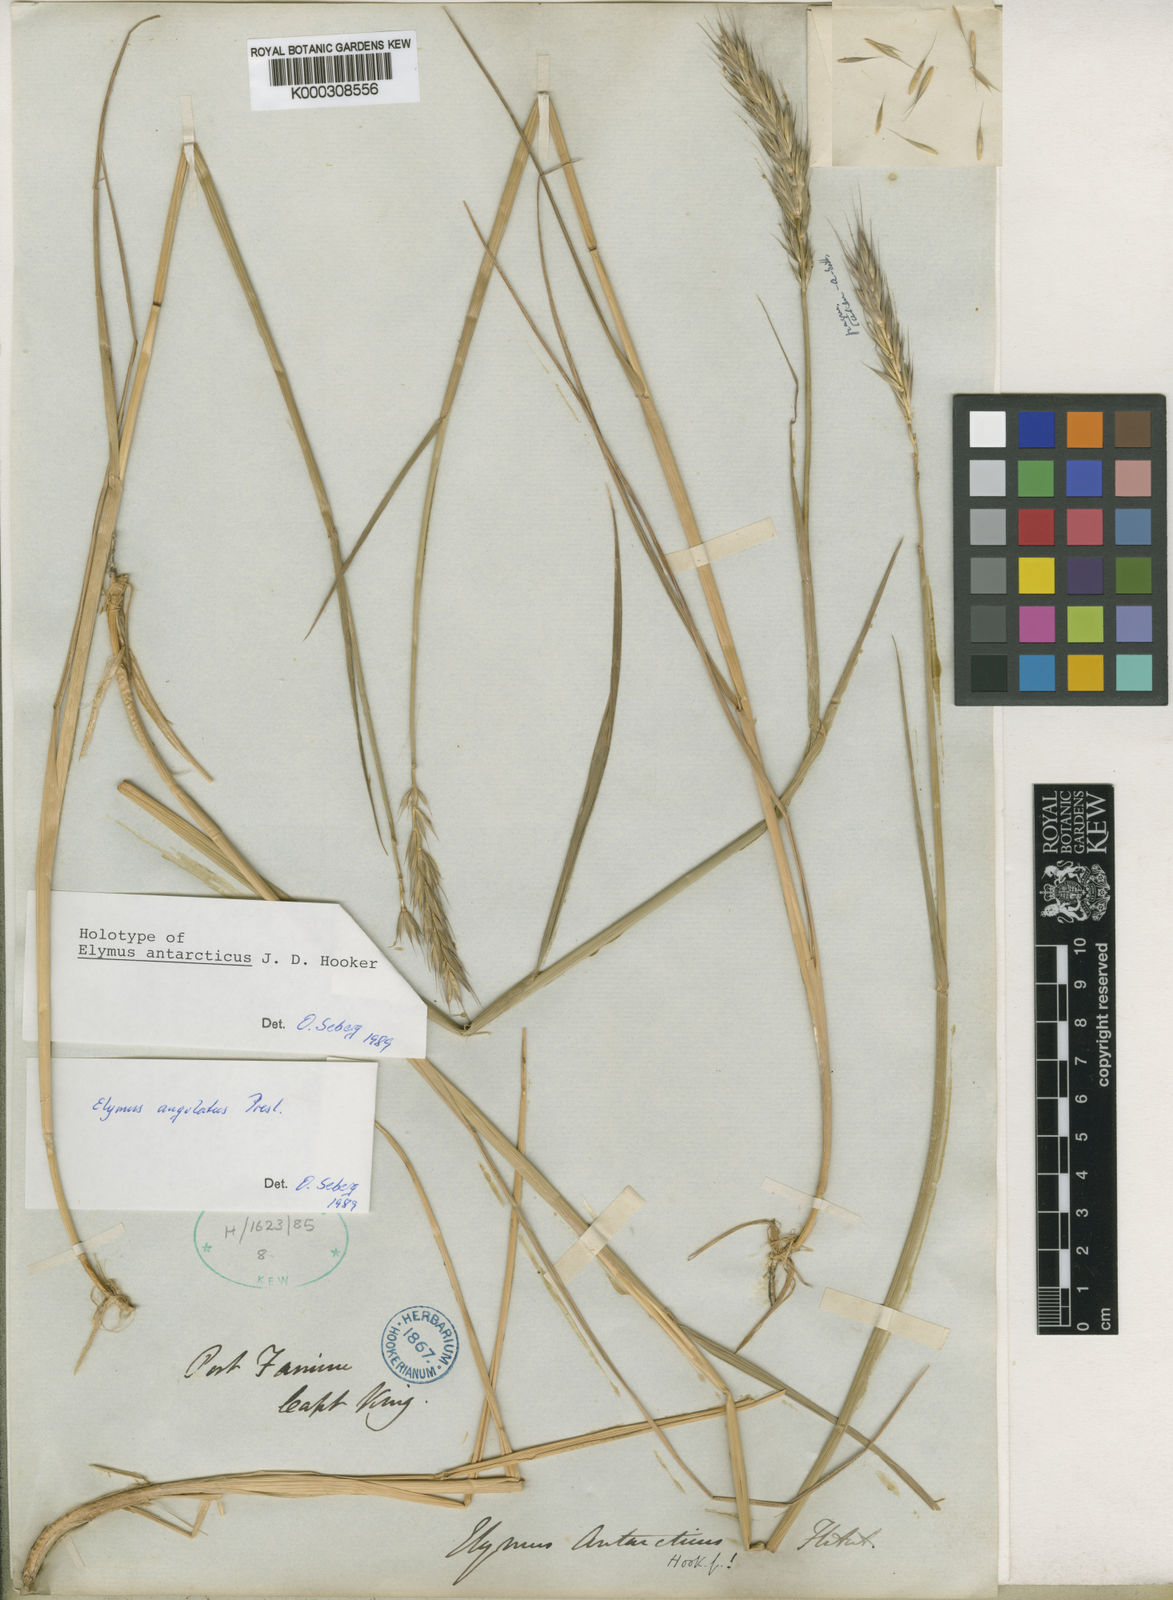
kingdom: Plantae
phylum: Tracheophyta
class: Liliopsida
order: Poales
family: Poaceae
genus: Elymus
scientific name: Elymus angulatus
